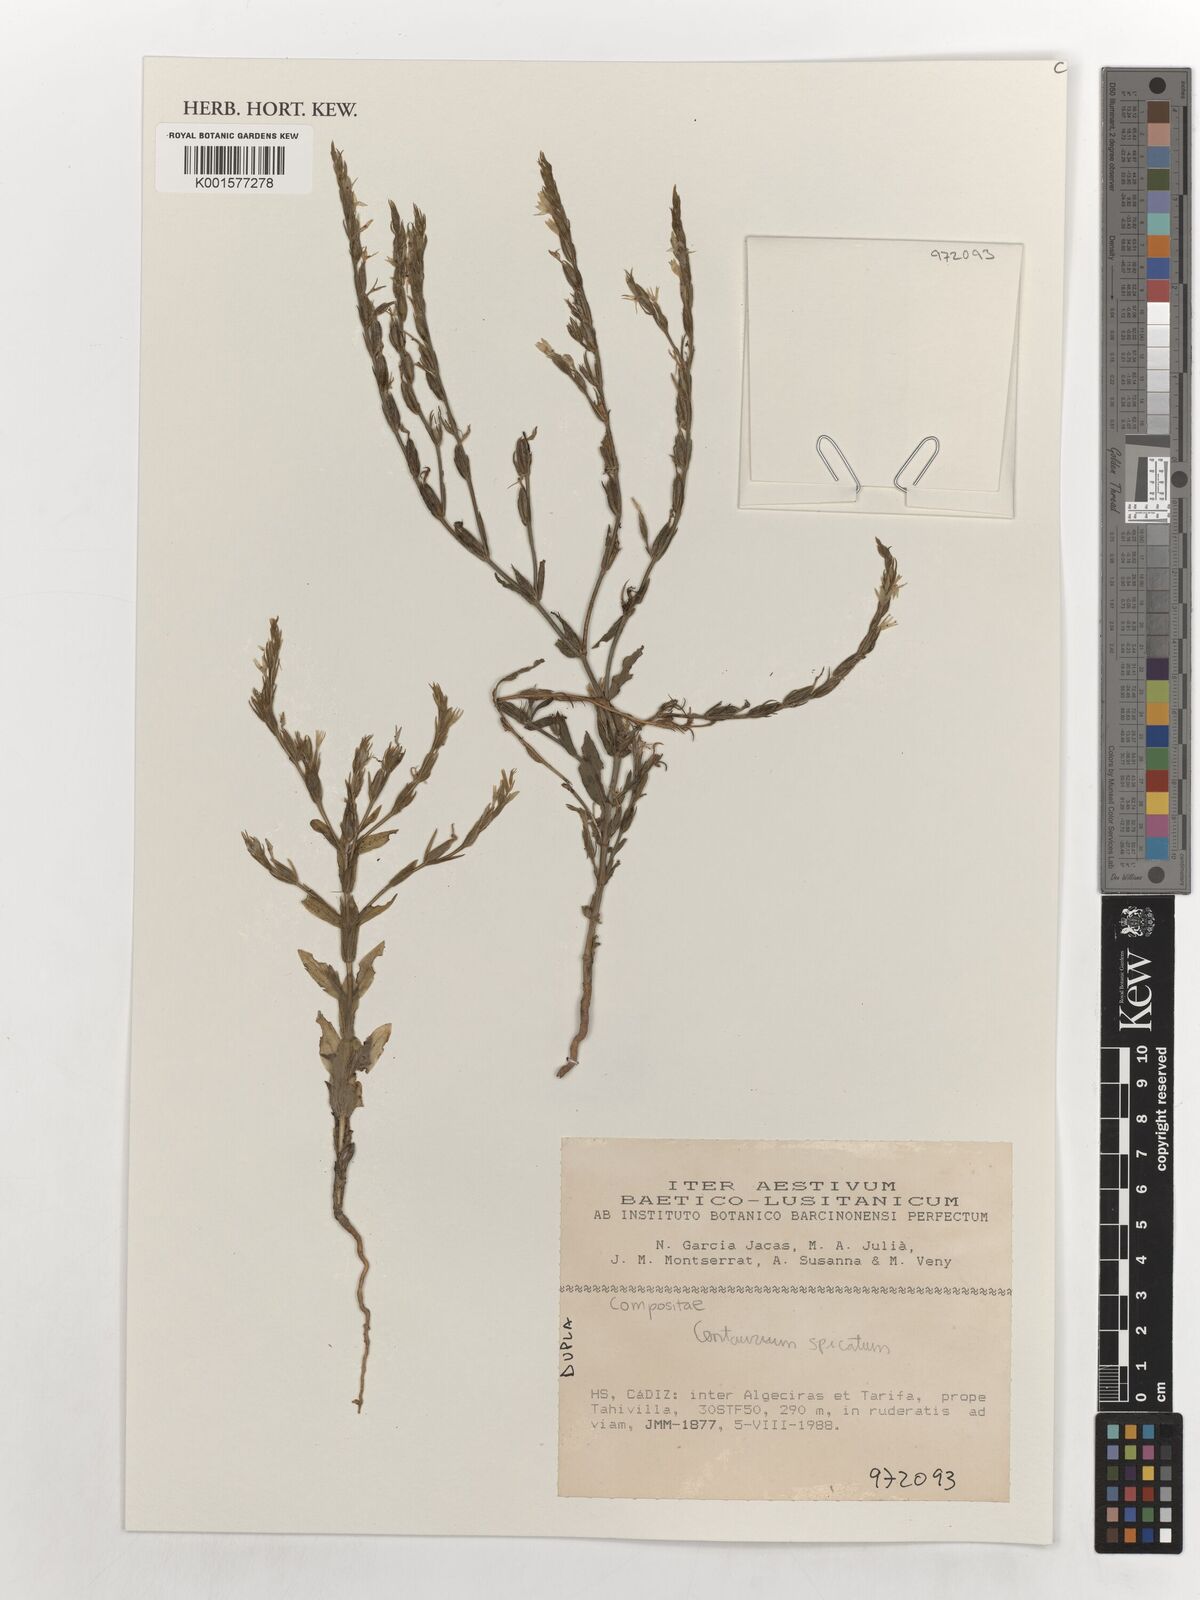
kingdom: Plantae
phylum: Tracheophyta
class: Magnoliopsida
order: Gentianales
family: Gentianaceae
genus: Schenkia
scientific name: Schenkia spicata
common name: Spiked centaury
